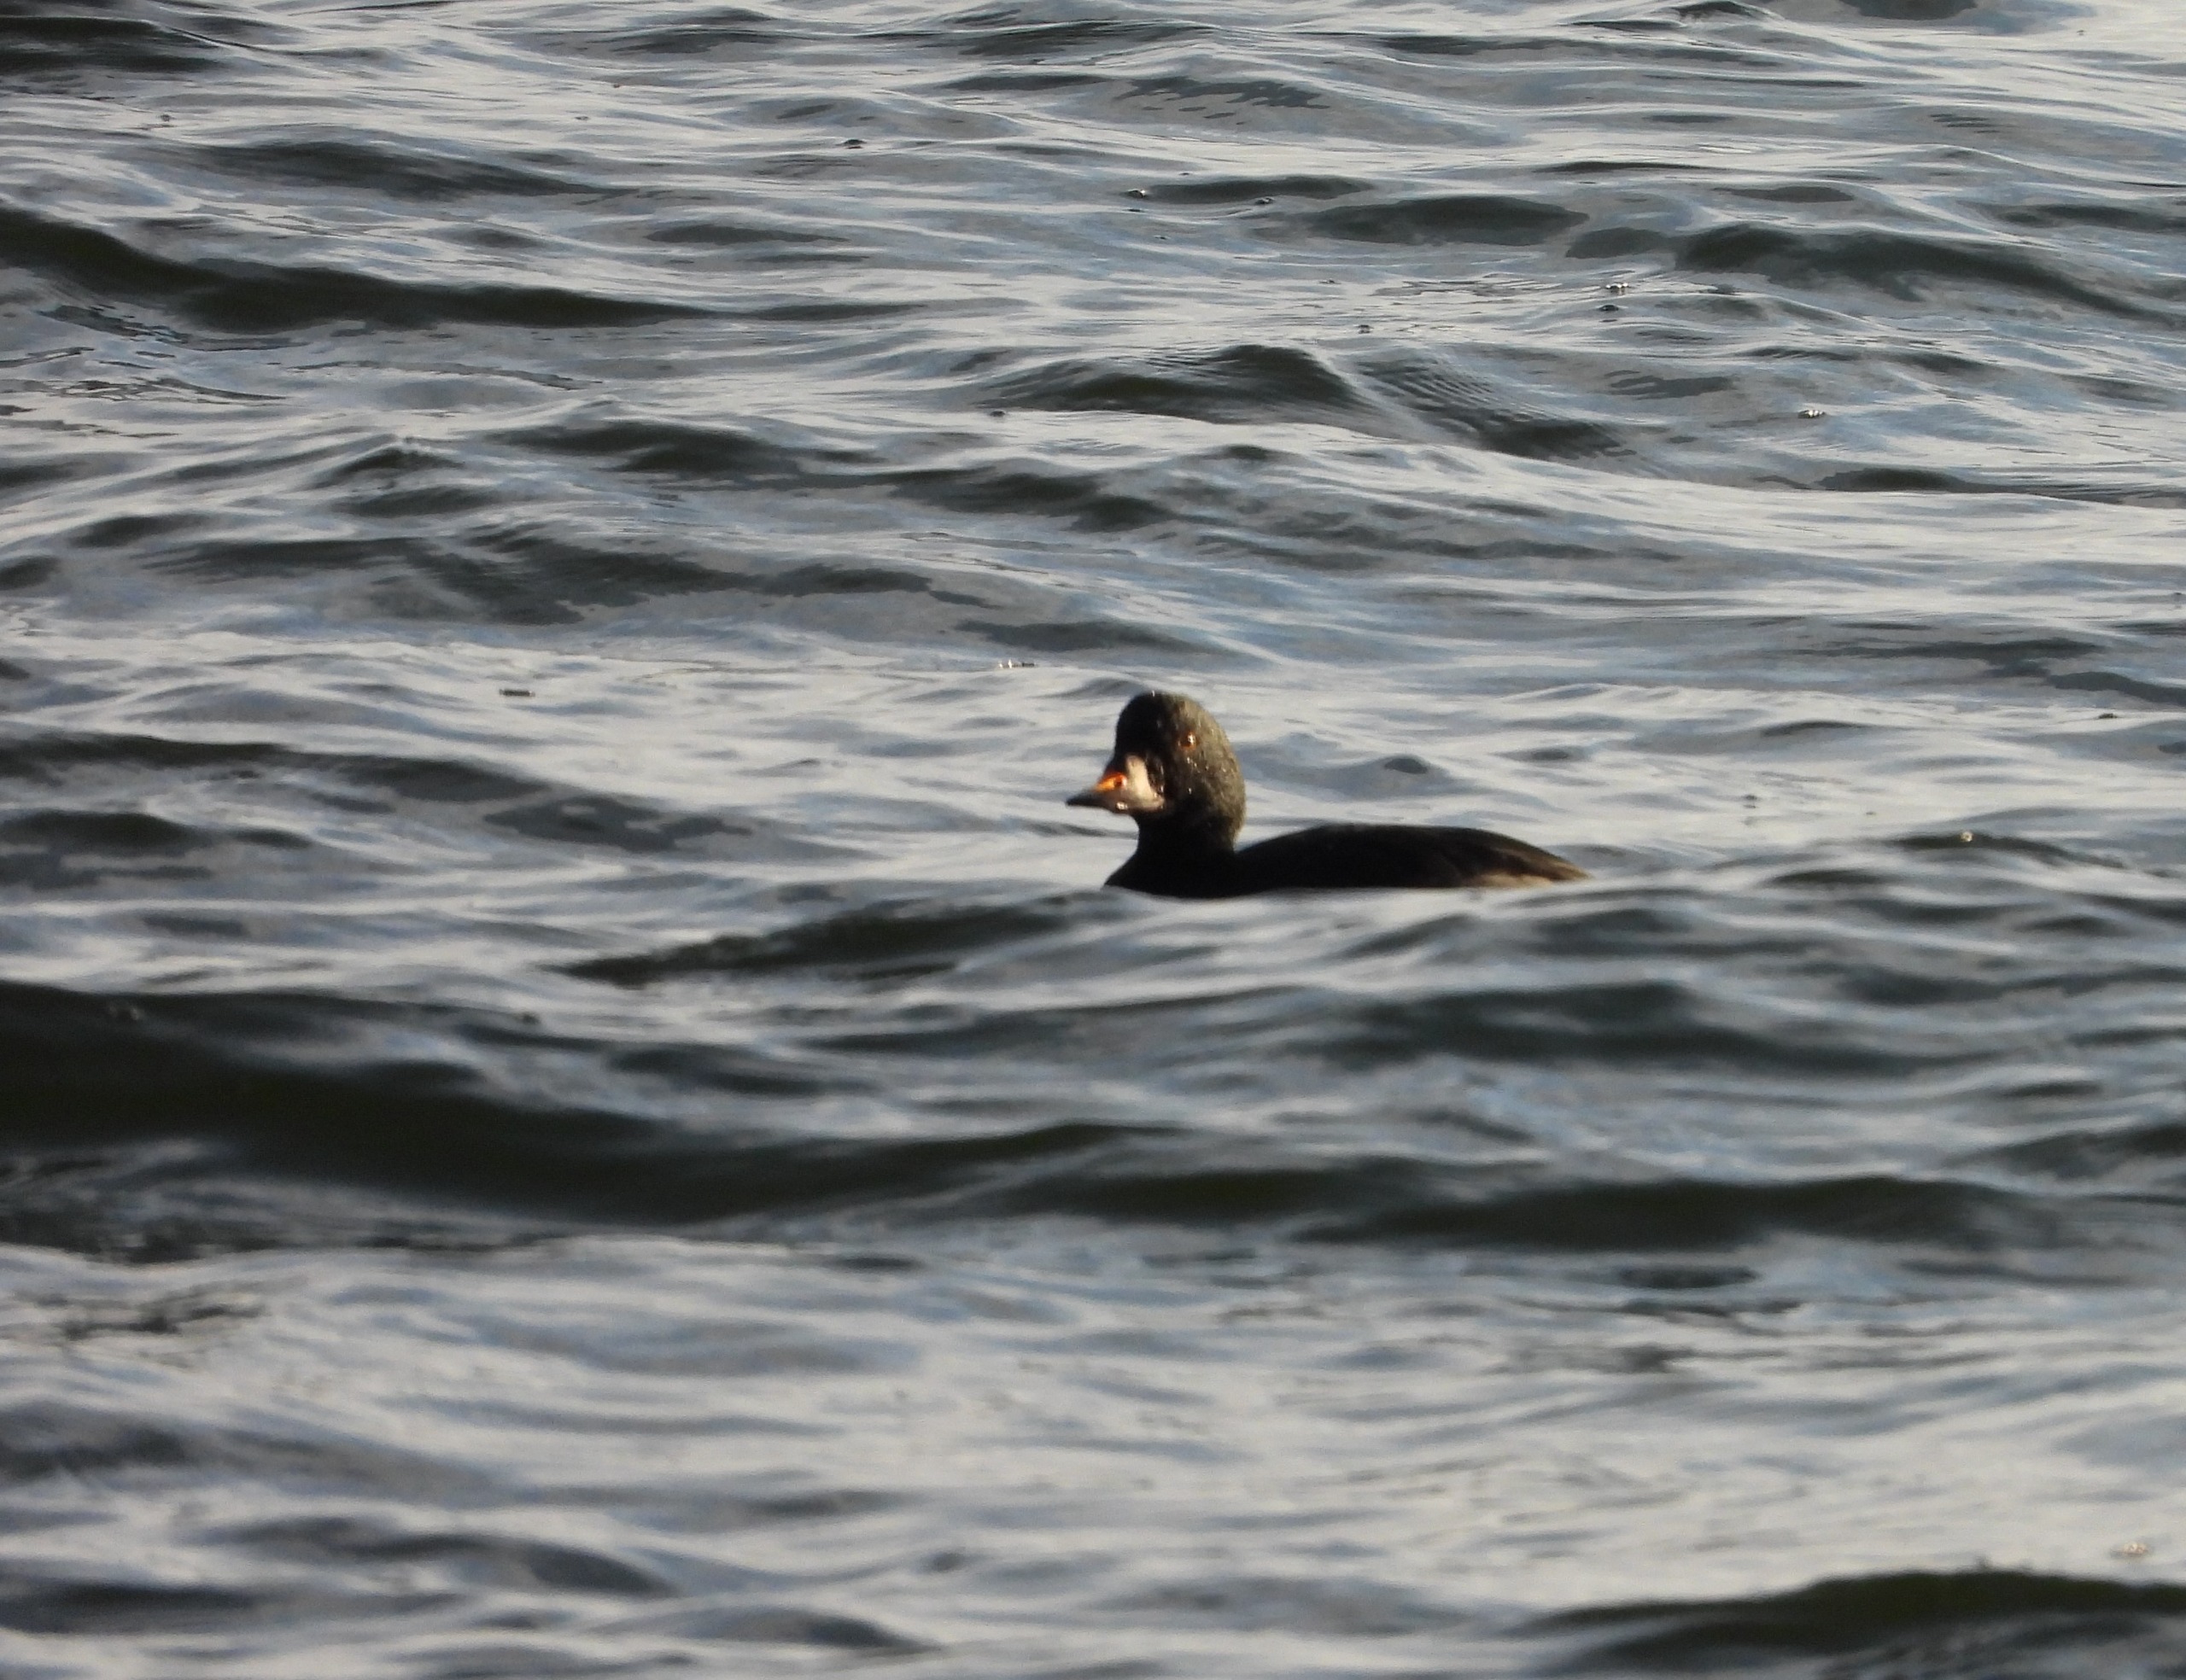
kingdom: Animalia
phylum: Chordata
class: Aves
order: Anseriformes
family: Anatidae
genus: Melanitta
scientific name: Melanitta nigra
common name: Sortand
